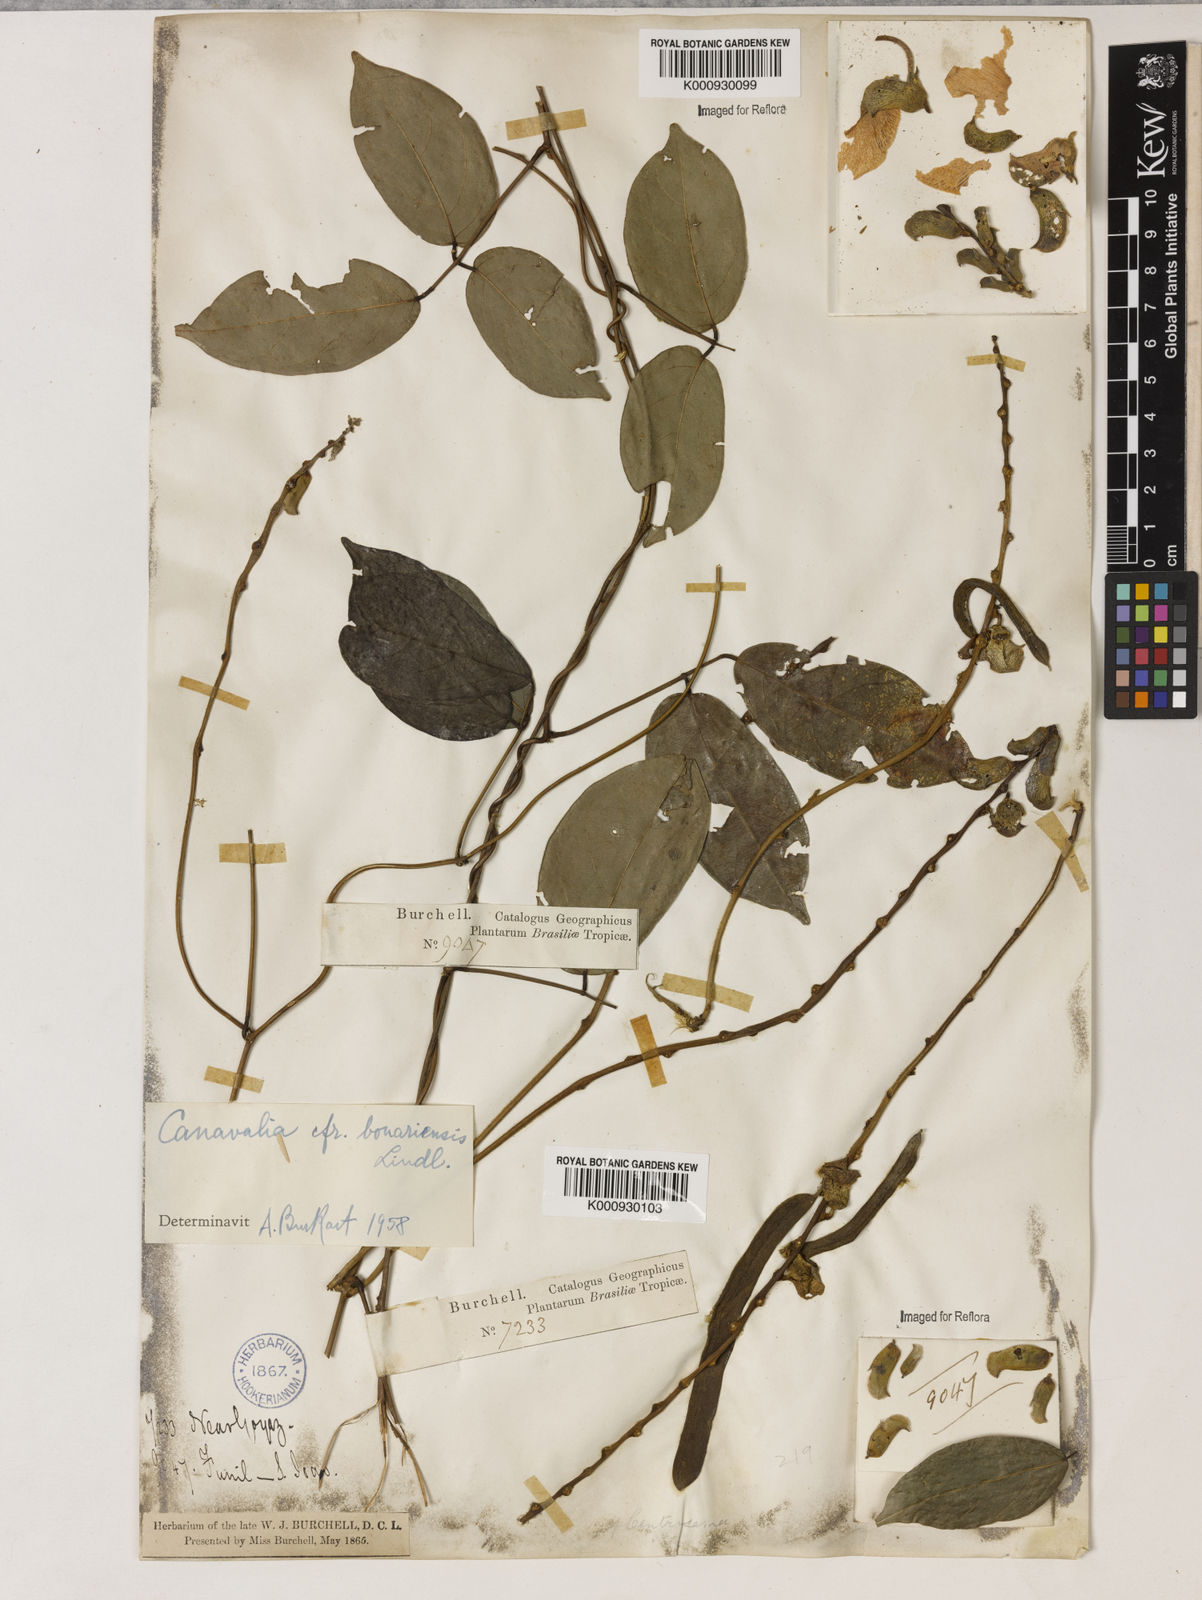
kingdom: Plantae
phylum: Tracheophyta
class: Magnoliopsida
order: Fabales
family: Fabaceae
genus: Canavalia
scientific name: Canavalia bonariensis
